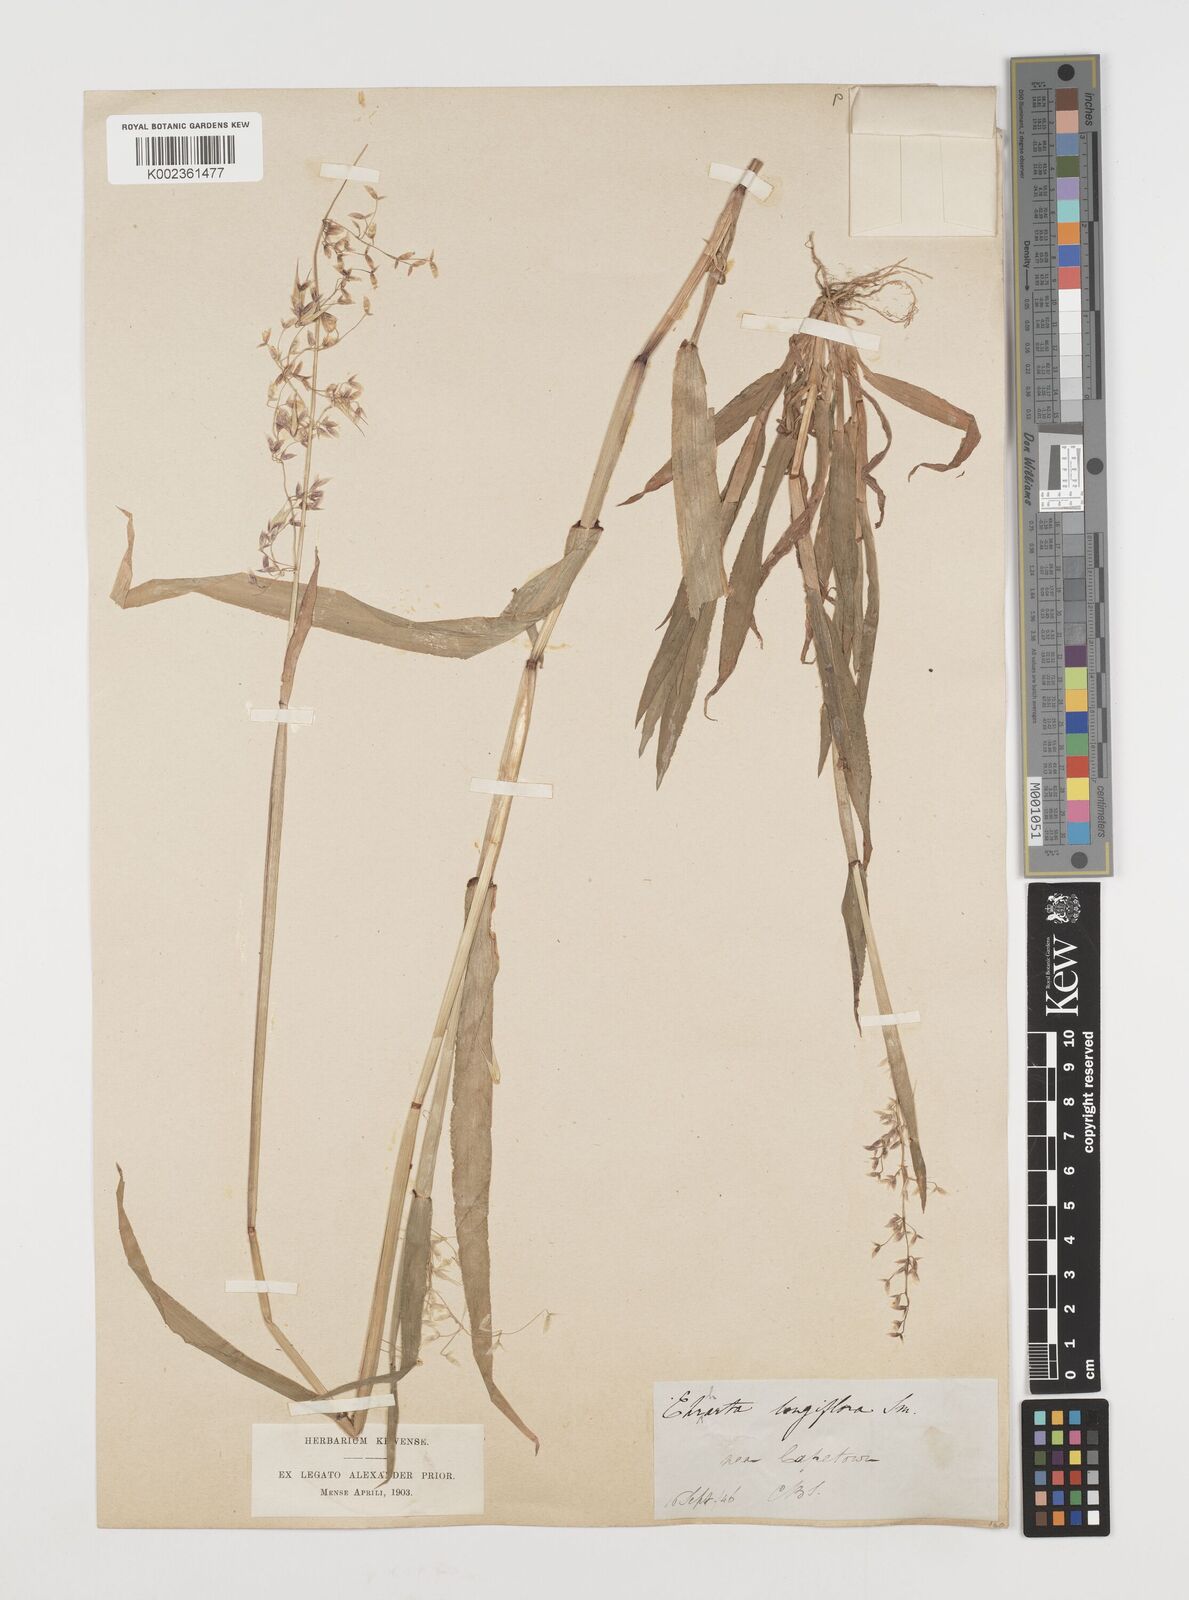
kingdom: Plantae
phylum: Tracheophyta
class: Liliopsida
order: Poales
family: Poaceae
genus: Ehrharta
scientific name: Ehrharta longiflora
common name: Longflowered veldtgrass
